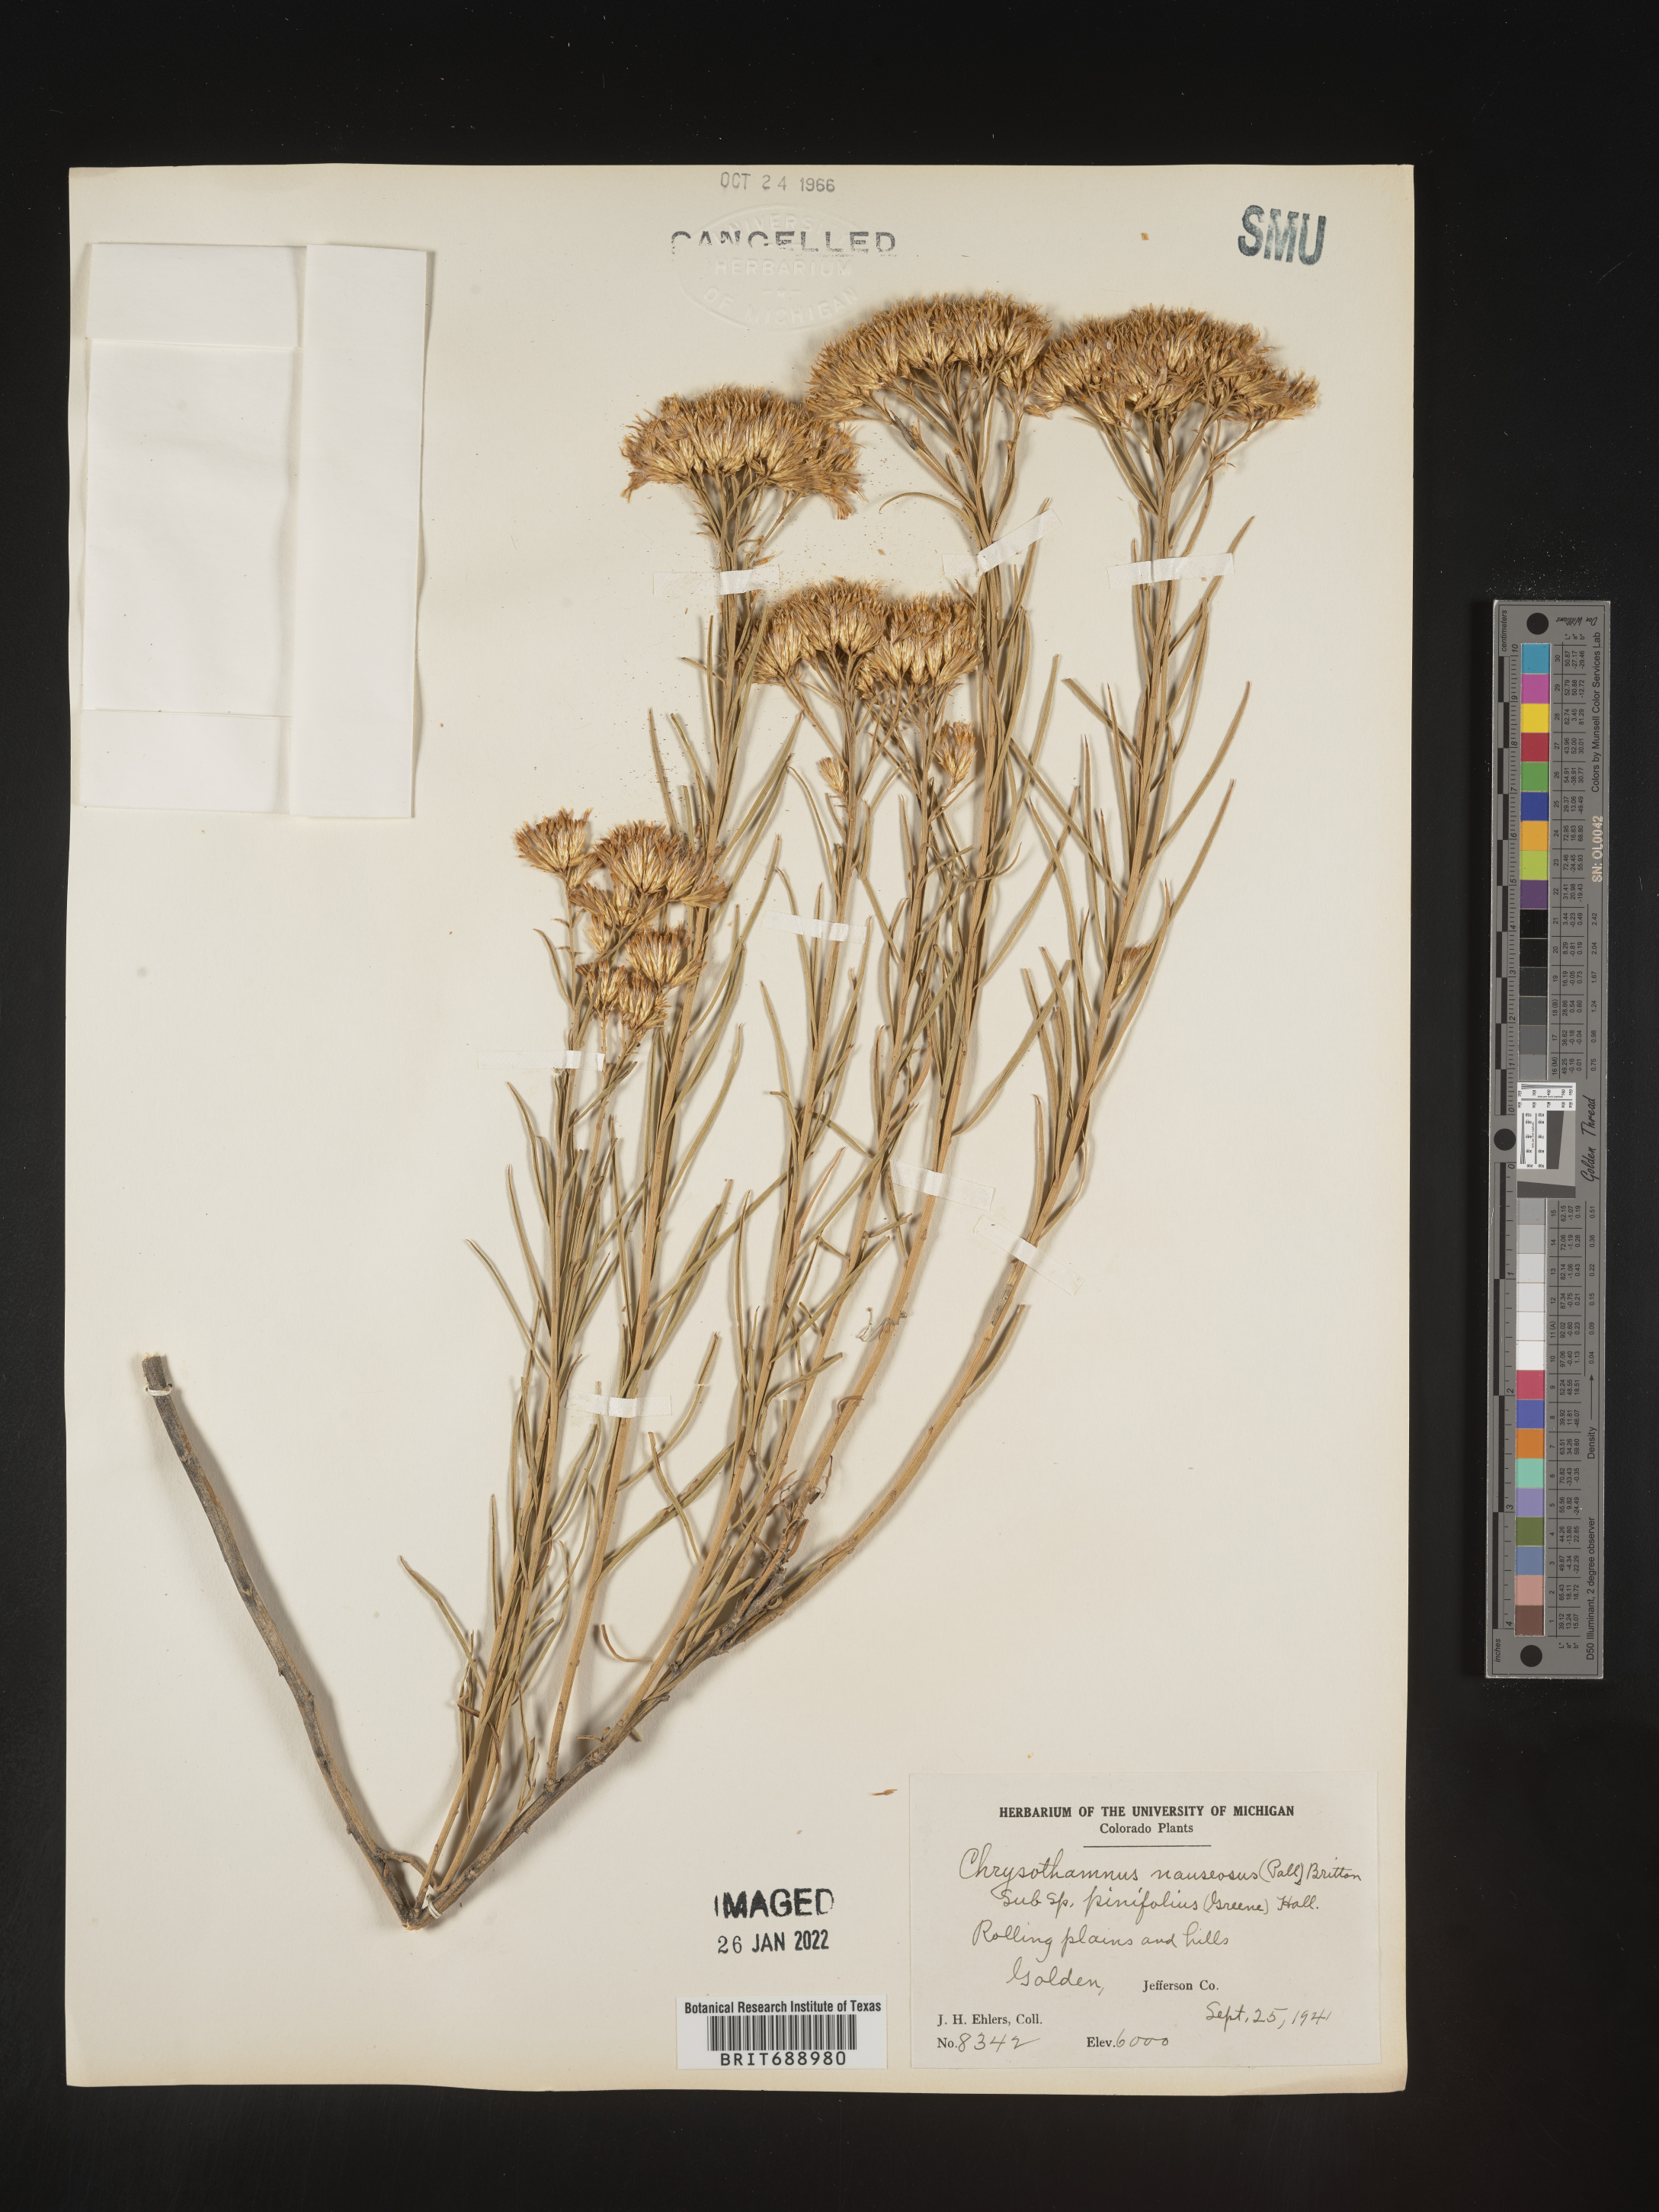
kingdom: Plantae
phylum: Tracheophyta
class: Magnoliopsida
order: Asterales
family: Asteraceae
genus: Ericameria
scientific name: Ericameria nauseosa
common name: Rubber rabbitbrush
